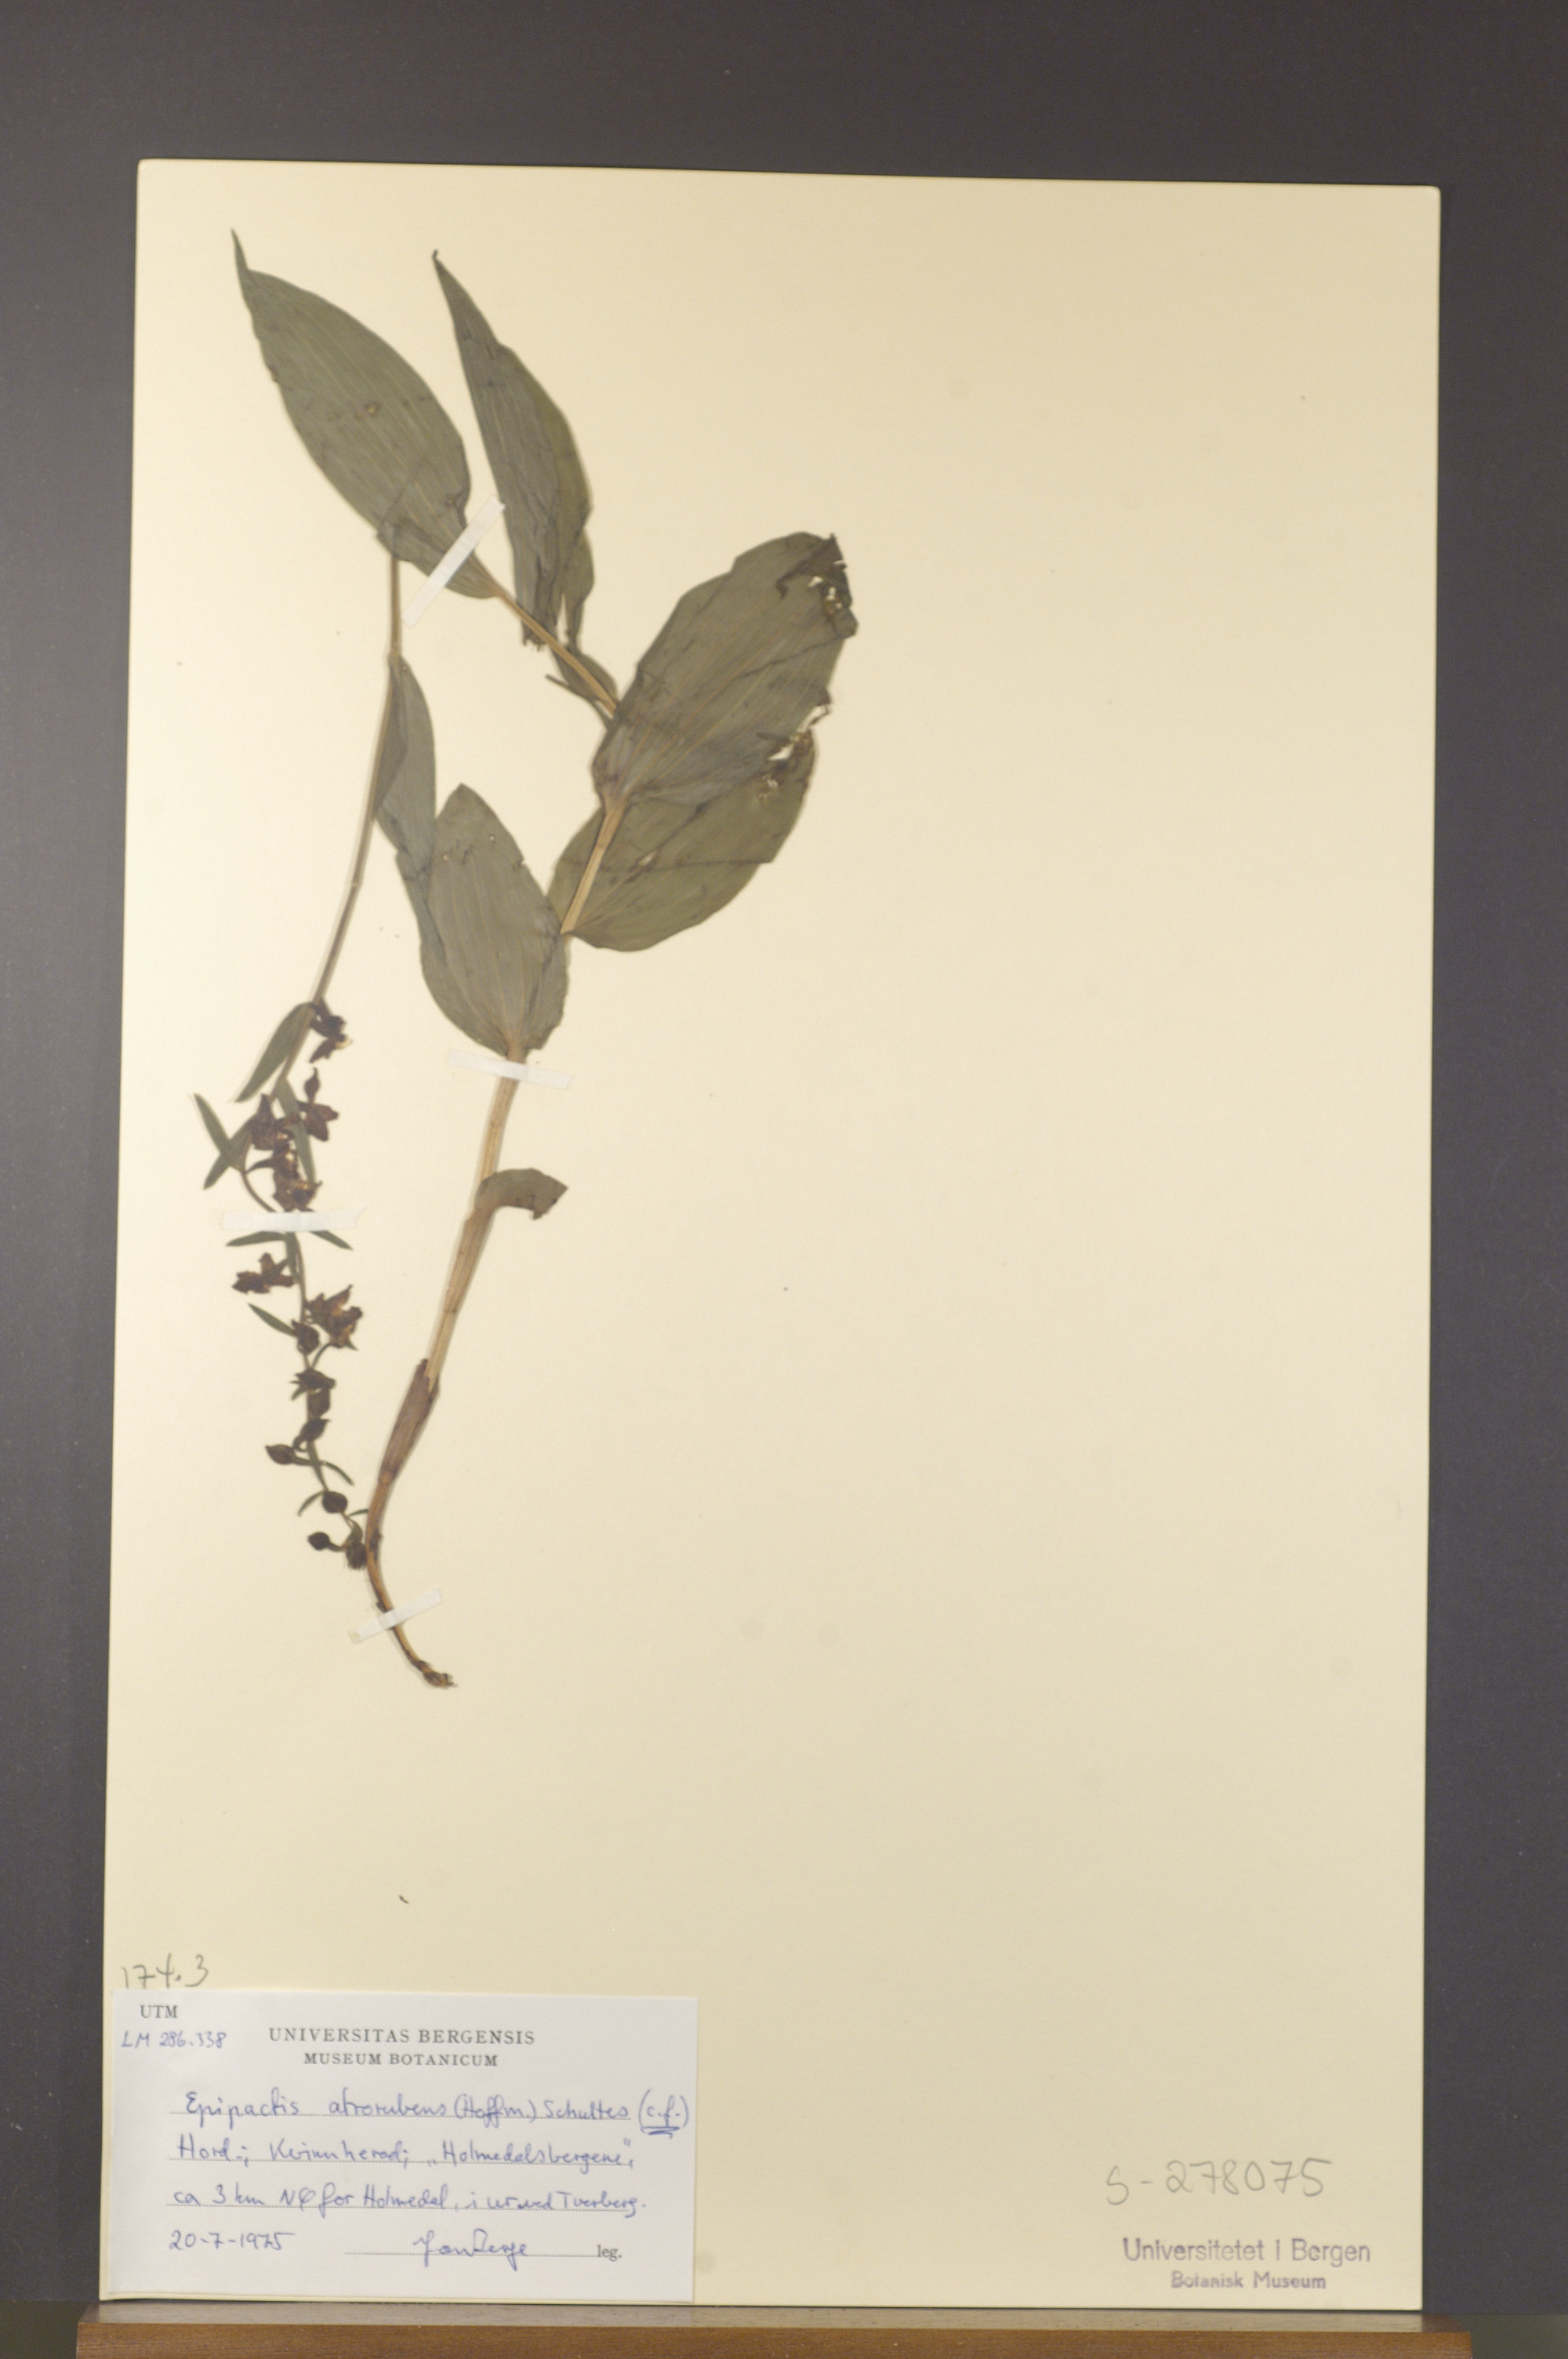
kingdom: Plantae
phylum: Tracheophyta
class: Liliopsida
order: Asparagales
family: Orchidaceae
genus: Epipactis
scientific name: Epipactis atrorubens
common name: Dark-red helleborine
